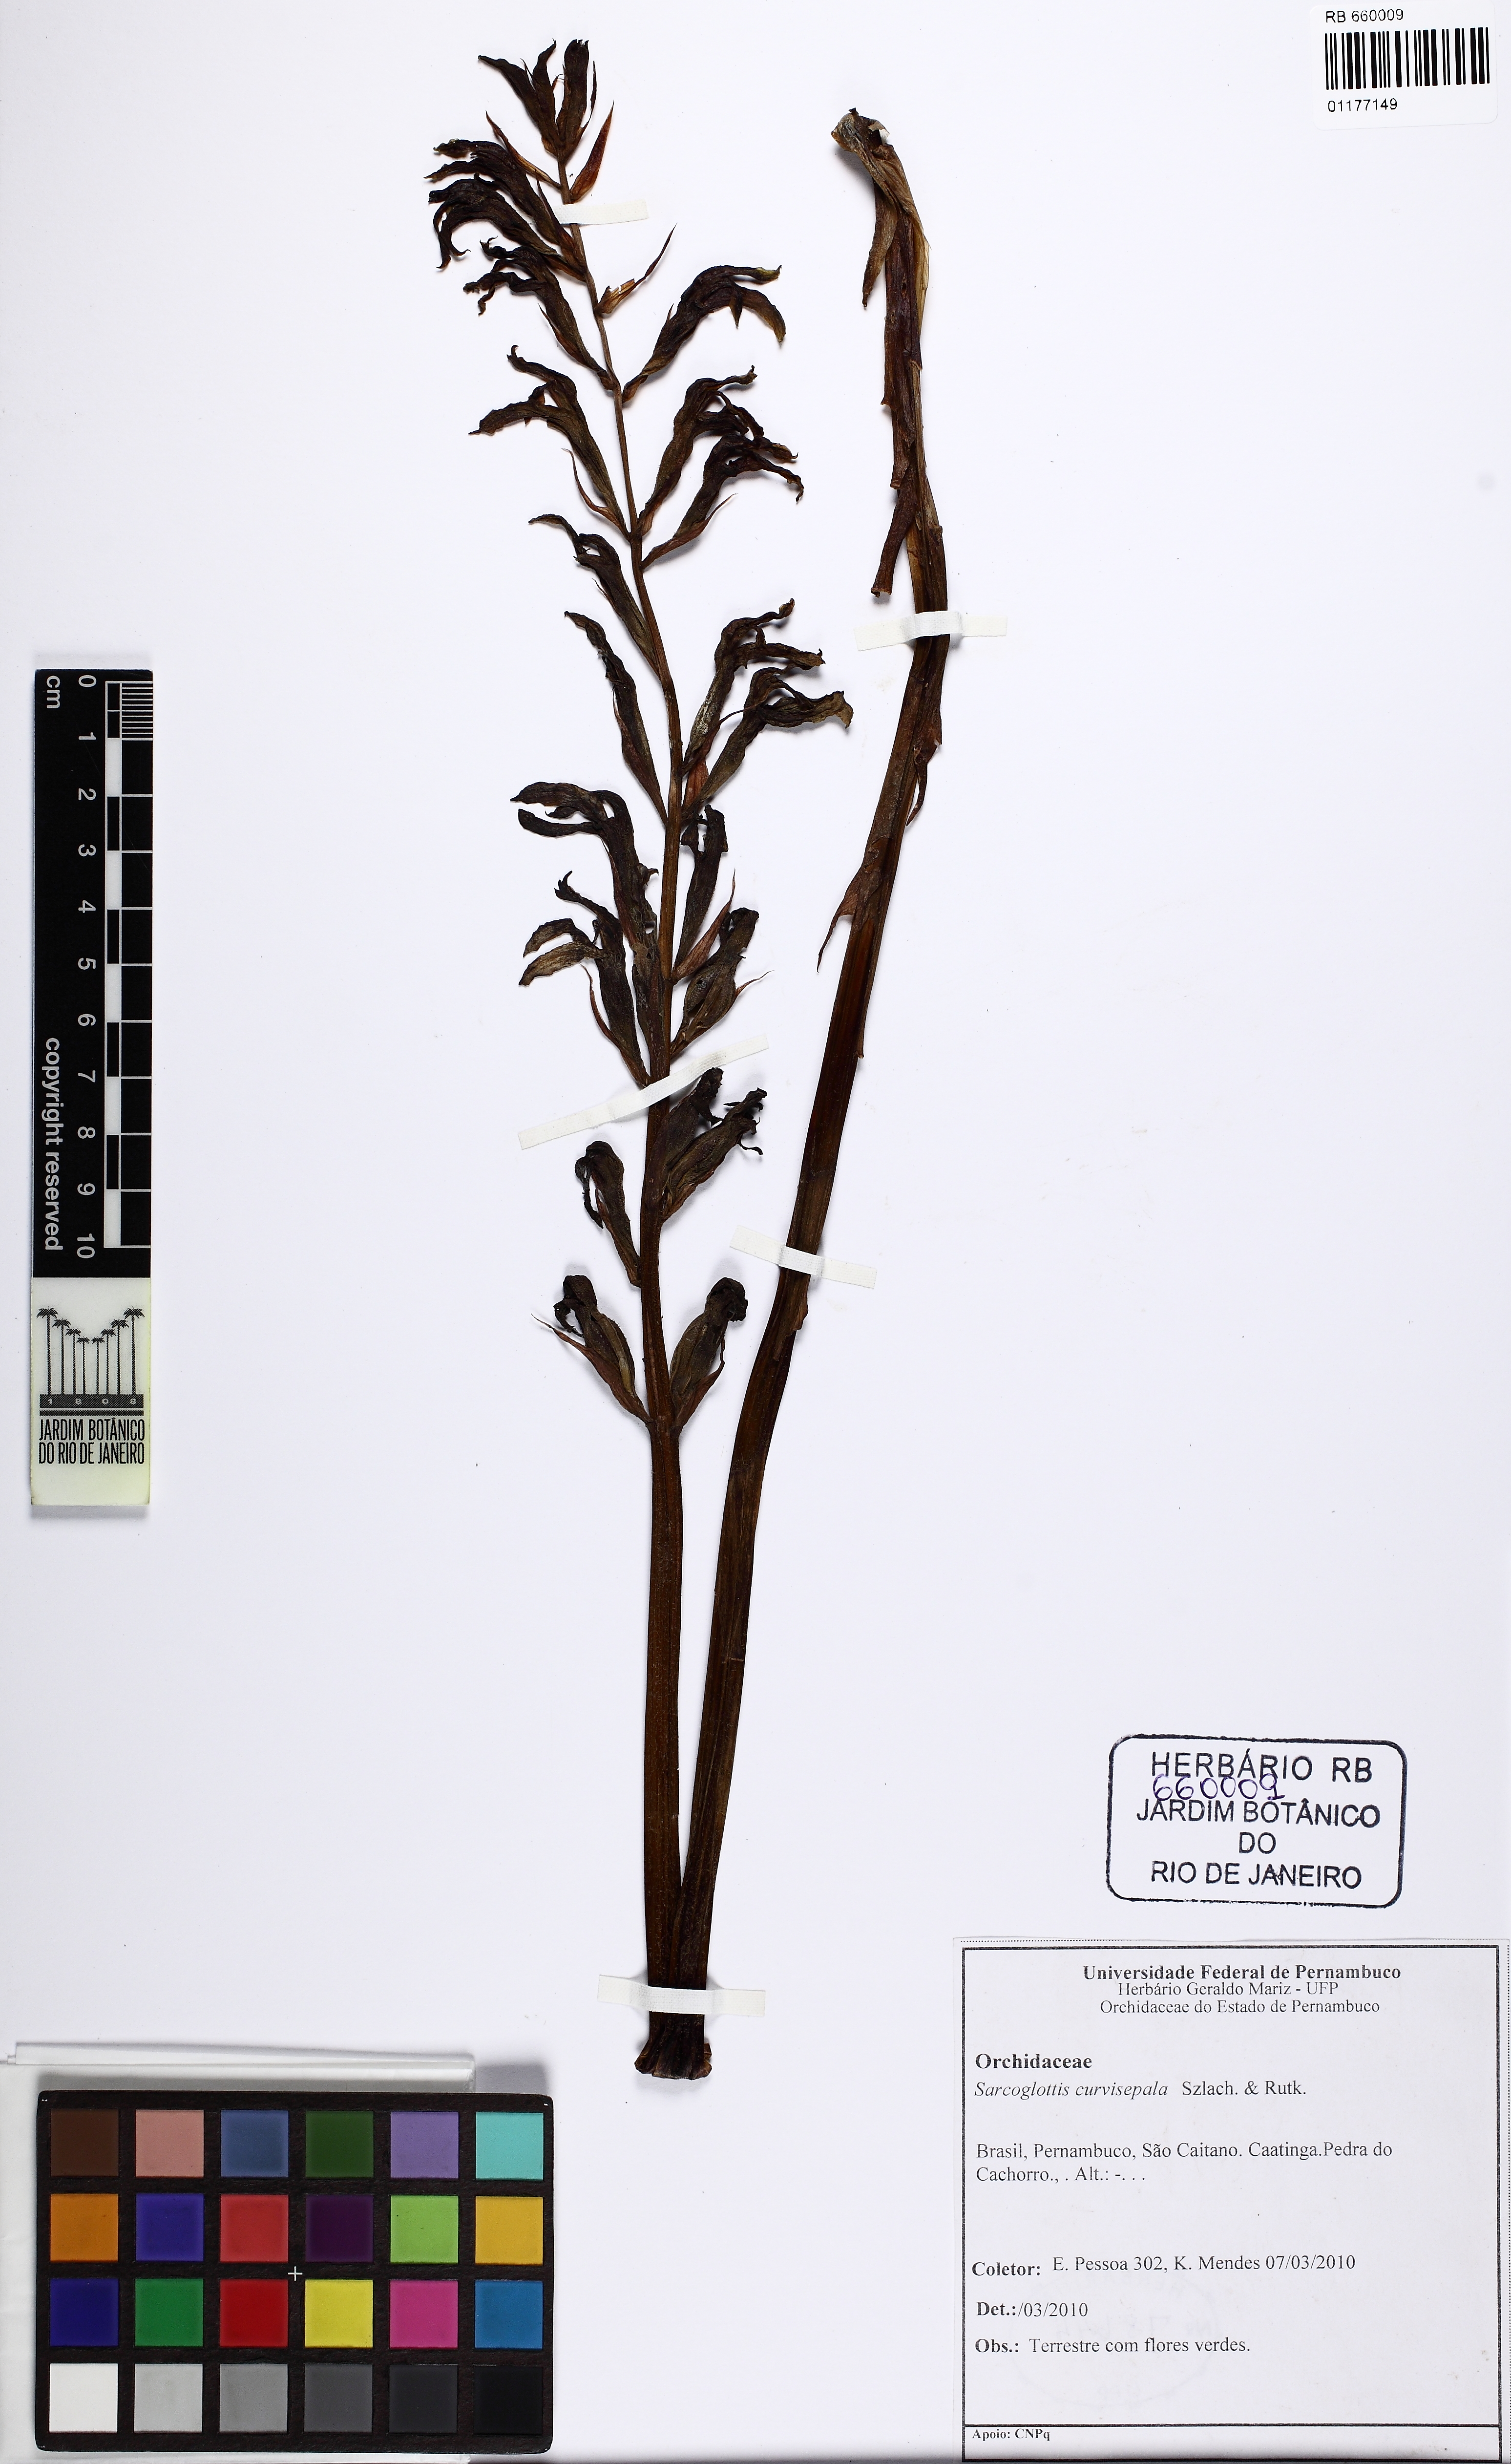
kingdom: Plantae
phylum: Tracheophyta
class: Liliopsida
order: Asparagales
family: Orchidaceae
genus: Sarcoglottis
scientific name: Sarcoglottis curvisepala
